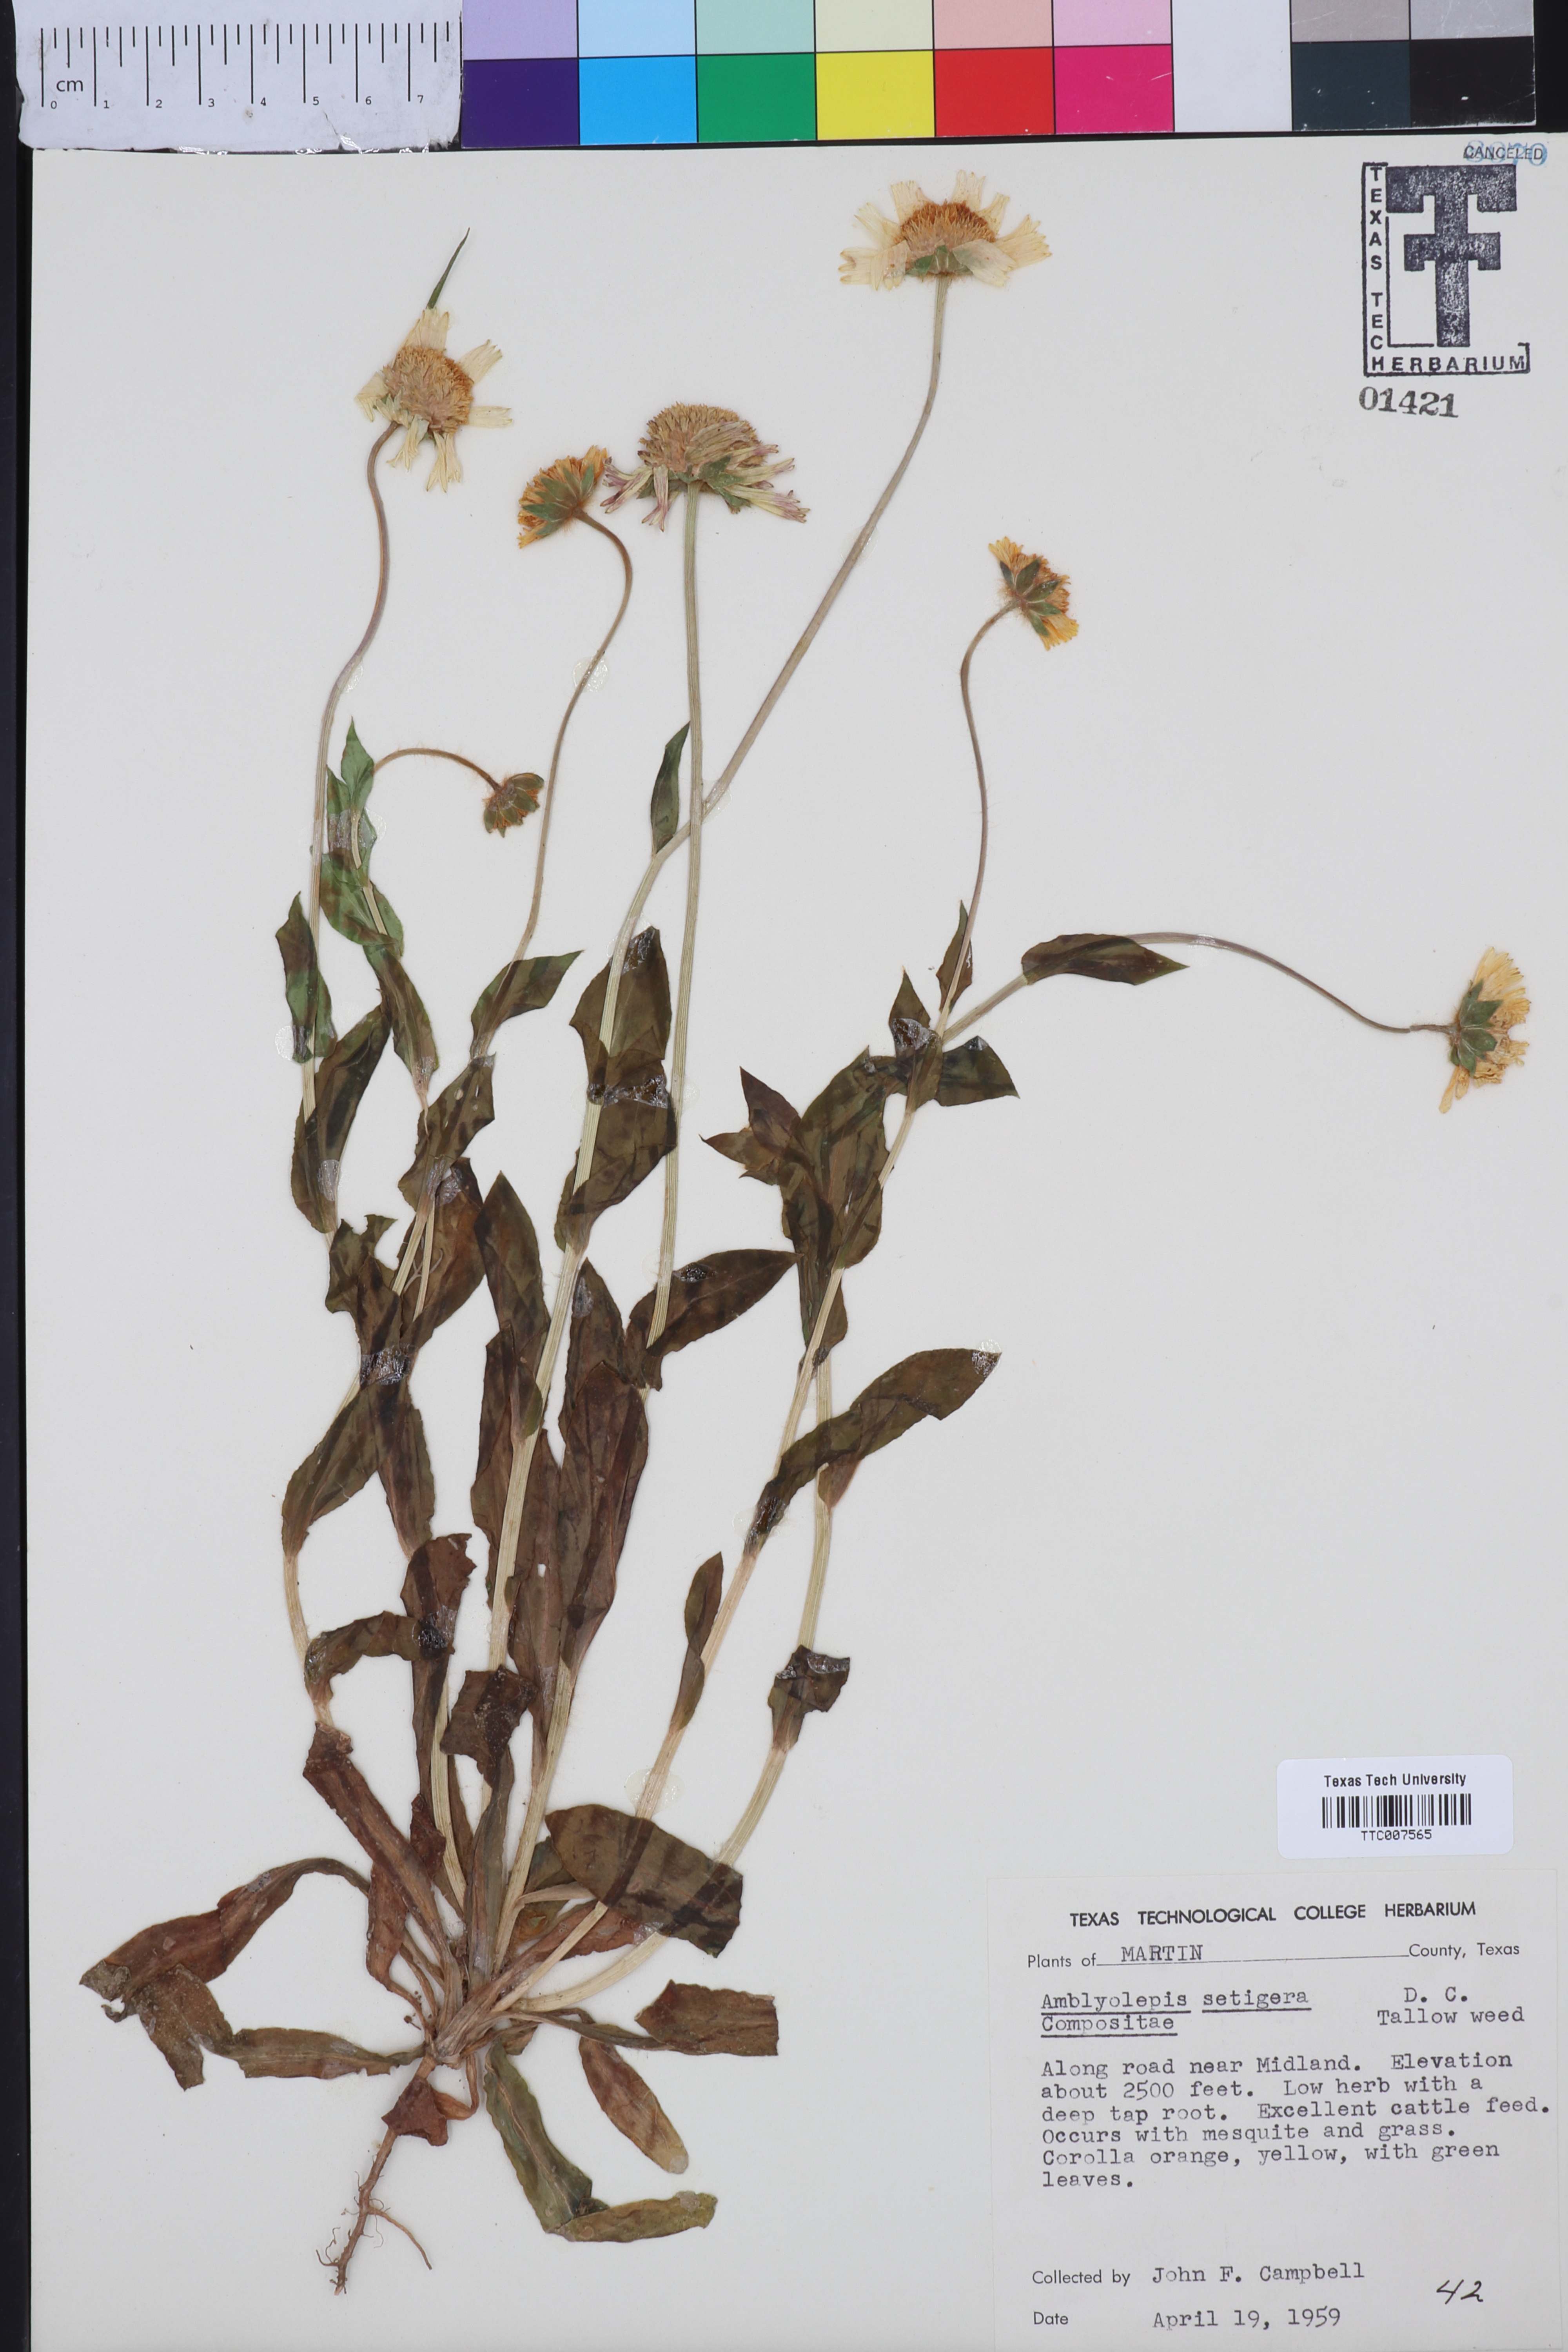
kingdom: Plantae
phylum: Tracheophyta
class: Magnoliopsida
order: Asterales
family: Asteraceae
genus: Amblyolepis
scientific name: Amblyolepis setigera
